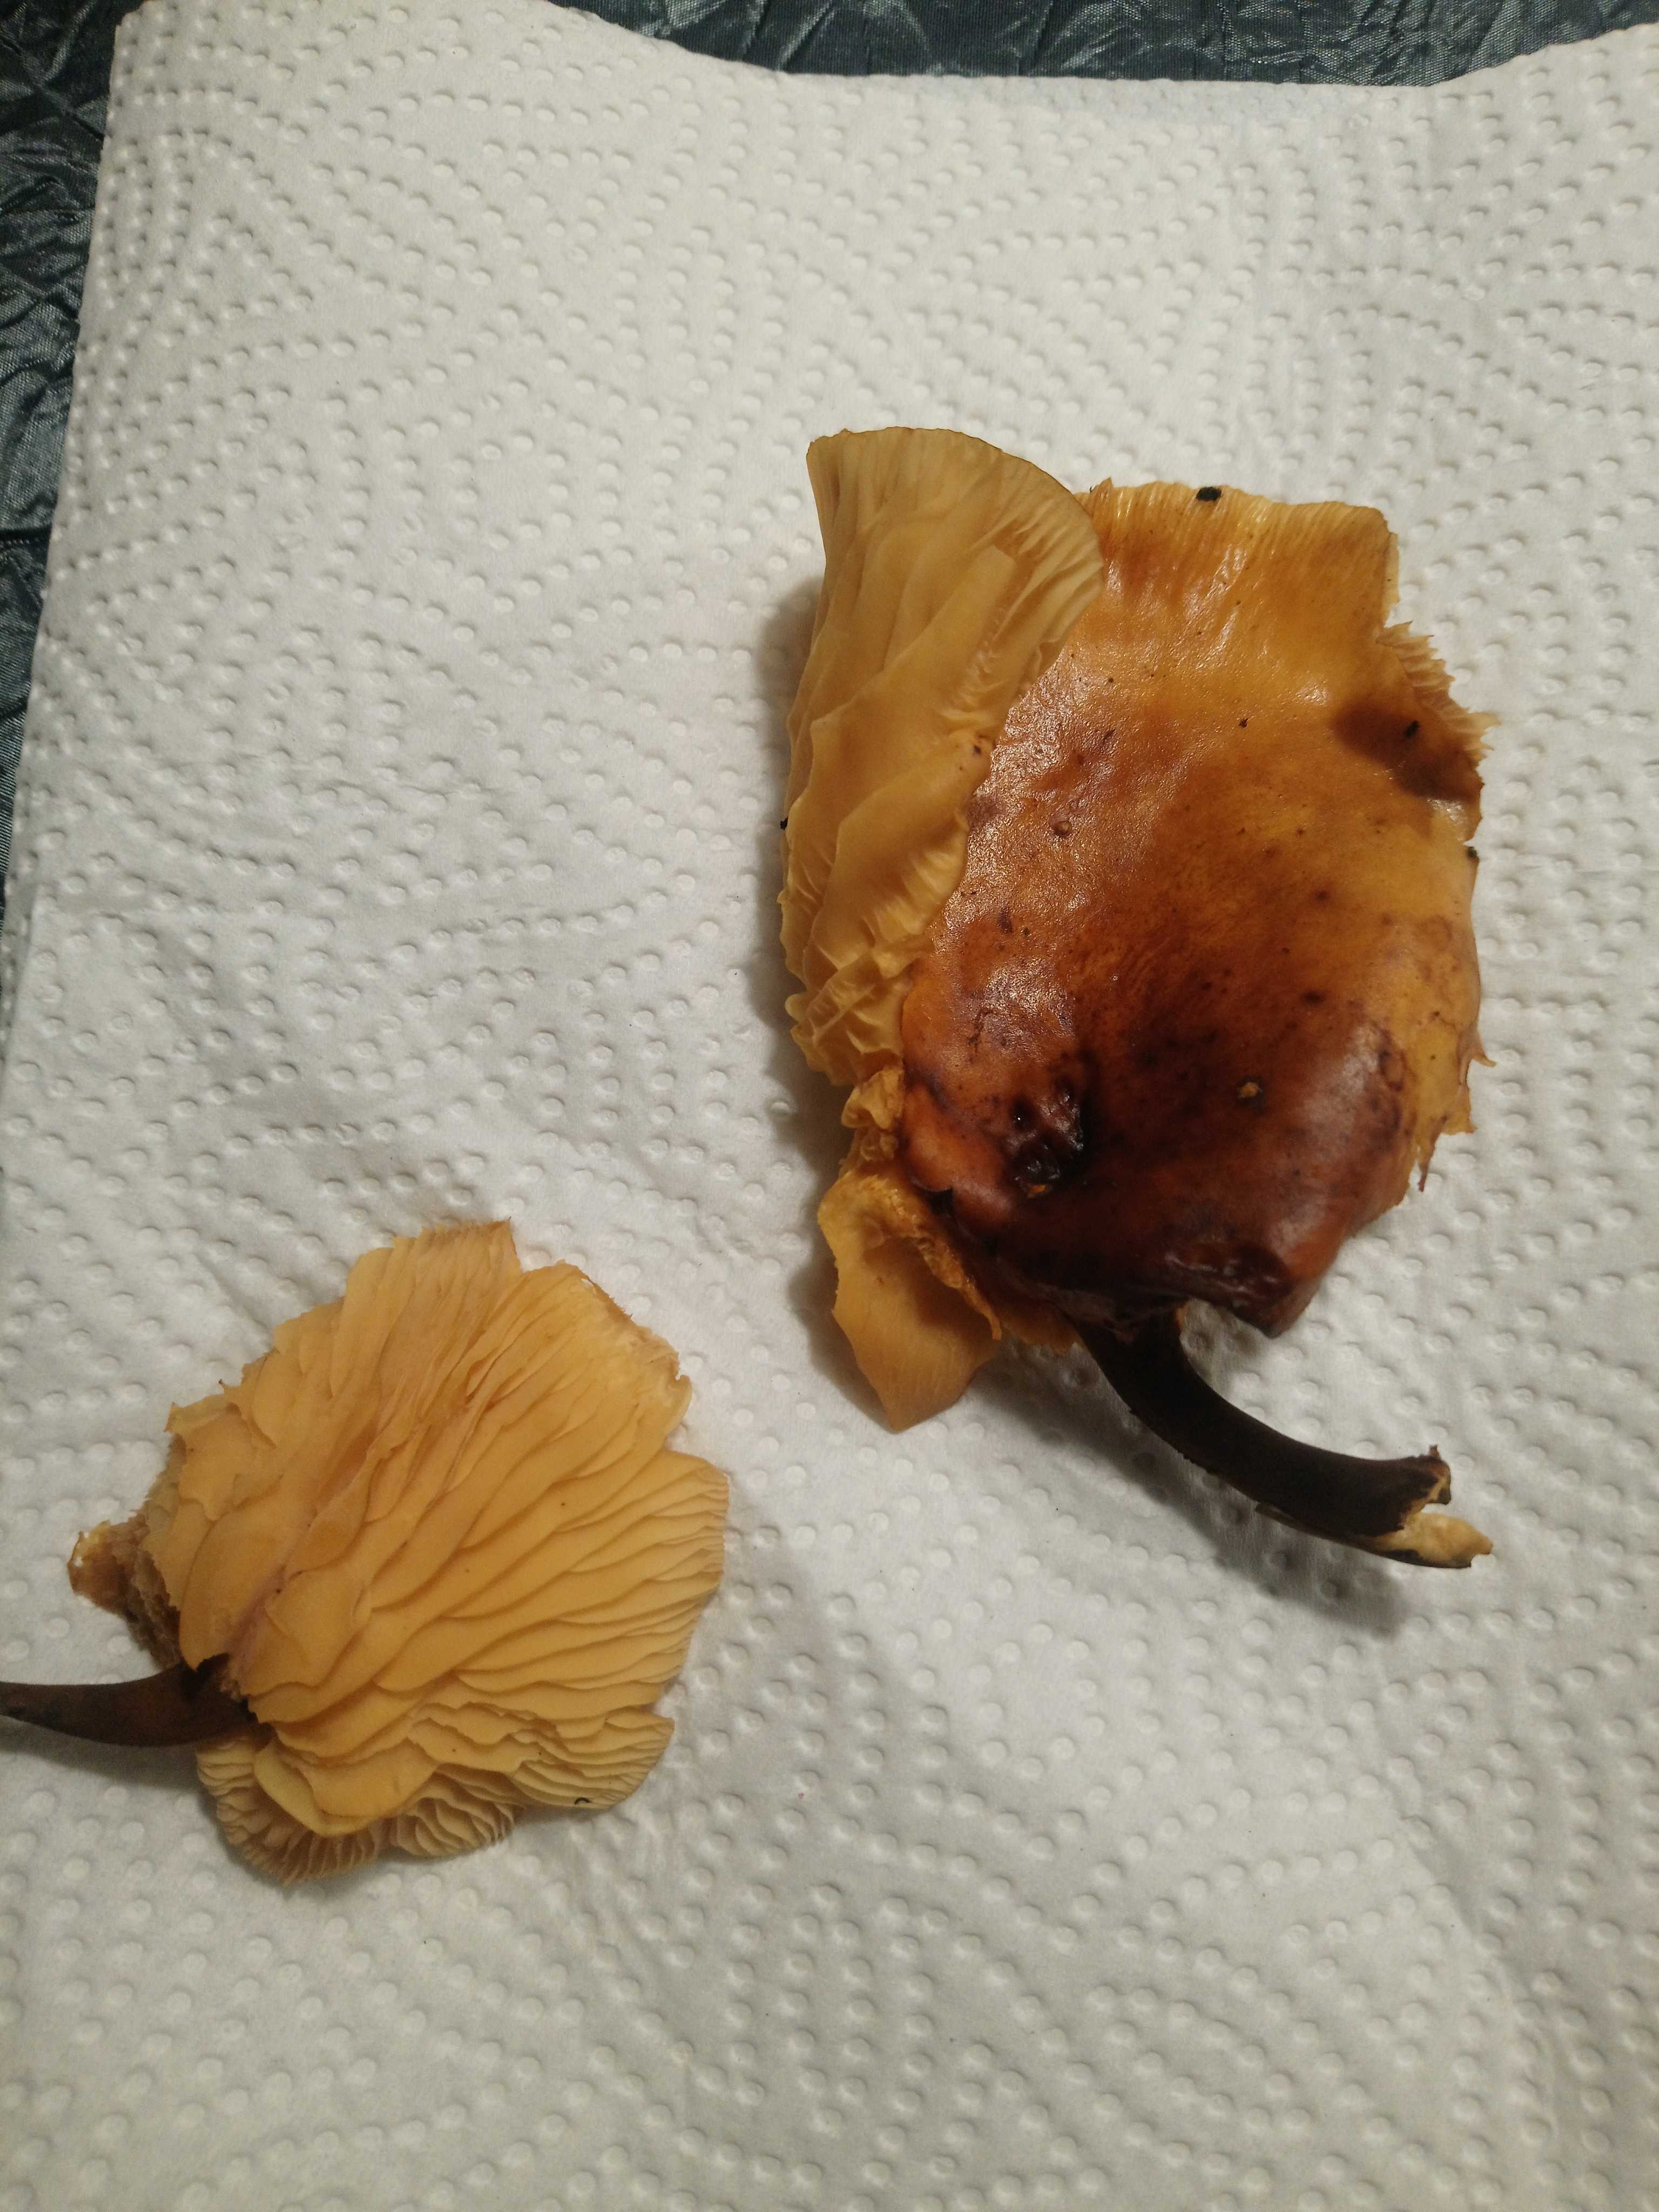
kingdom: Fungi
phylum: Basidiomycota
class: Agaricomycetes
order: Agaricales
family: Physalacriaceae
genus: Flammulina
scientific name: Flammulina
